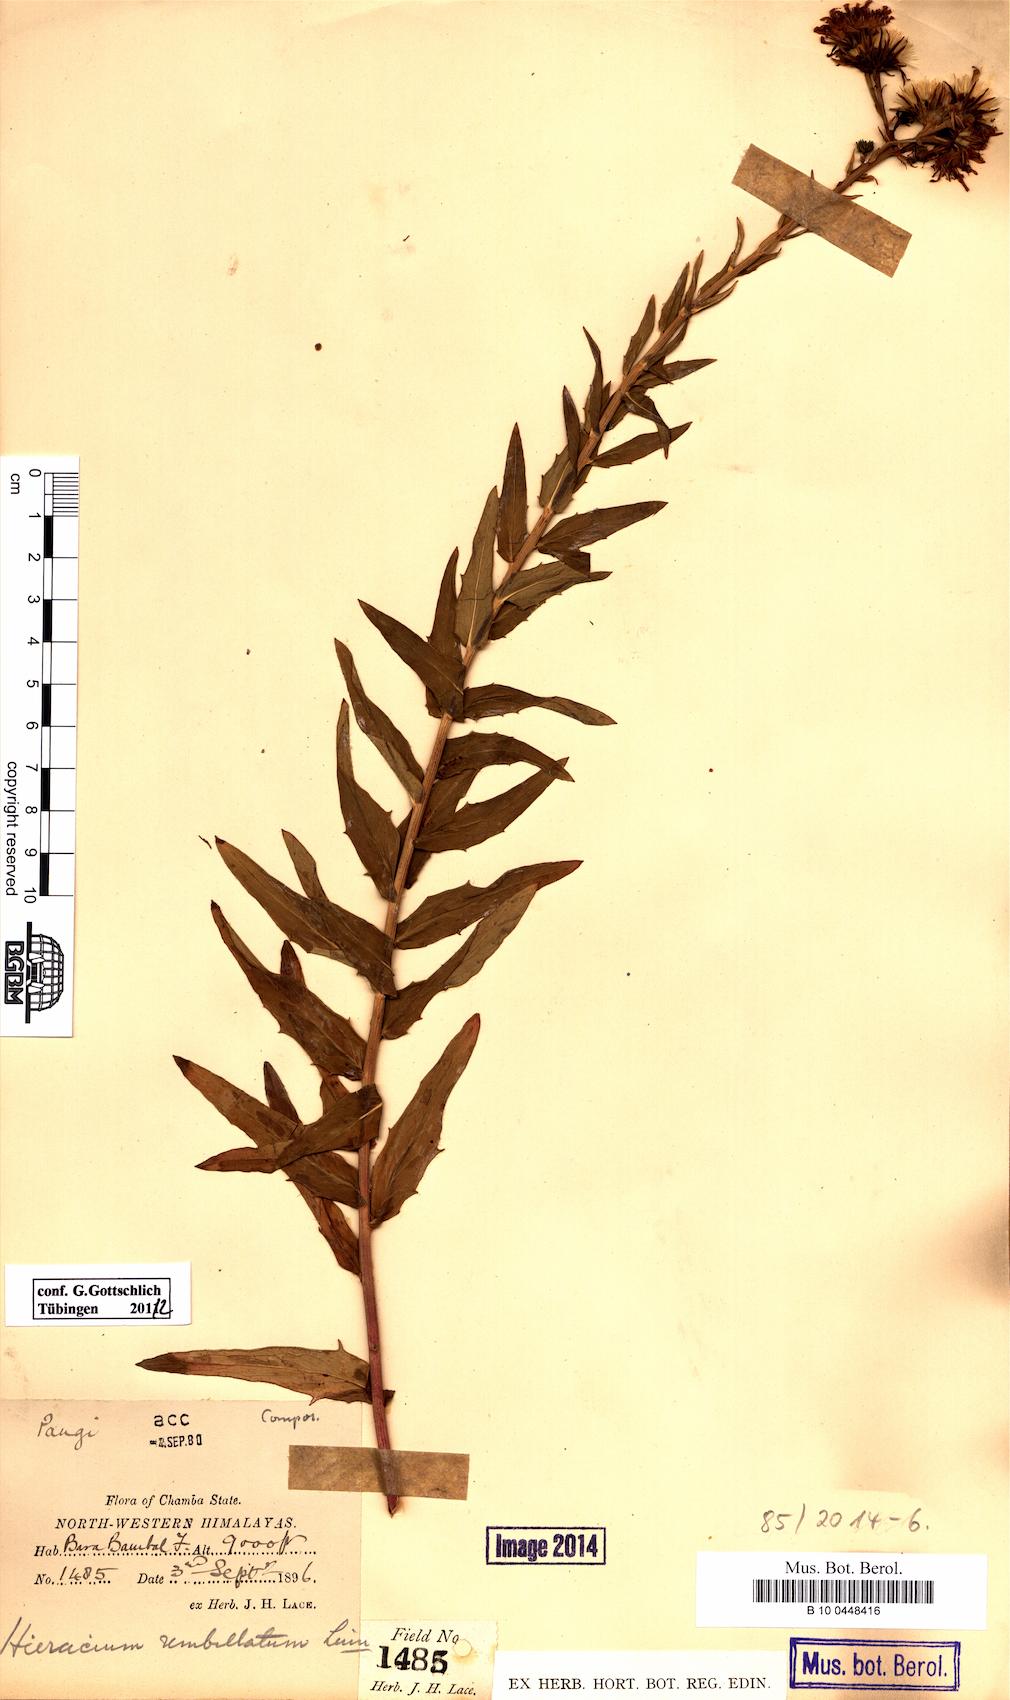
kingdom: Plantae
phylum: Tracheophyta
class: Magnoliopsida
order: Asterales
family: Asteraceae
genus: Hieracium
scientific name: Hieracium umbellatum
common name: Northern hawkweed
